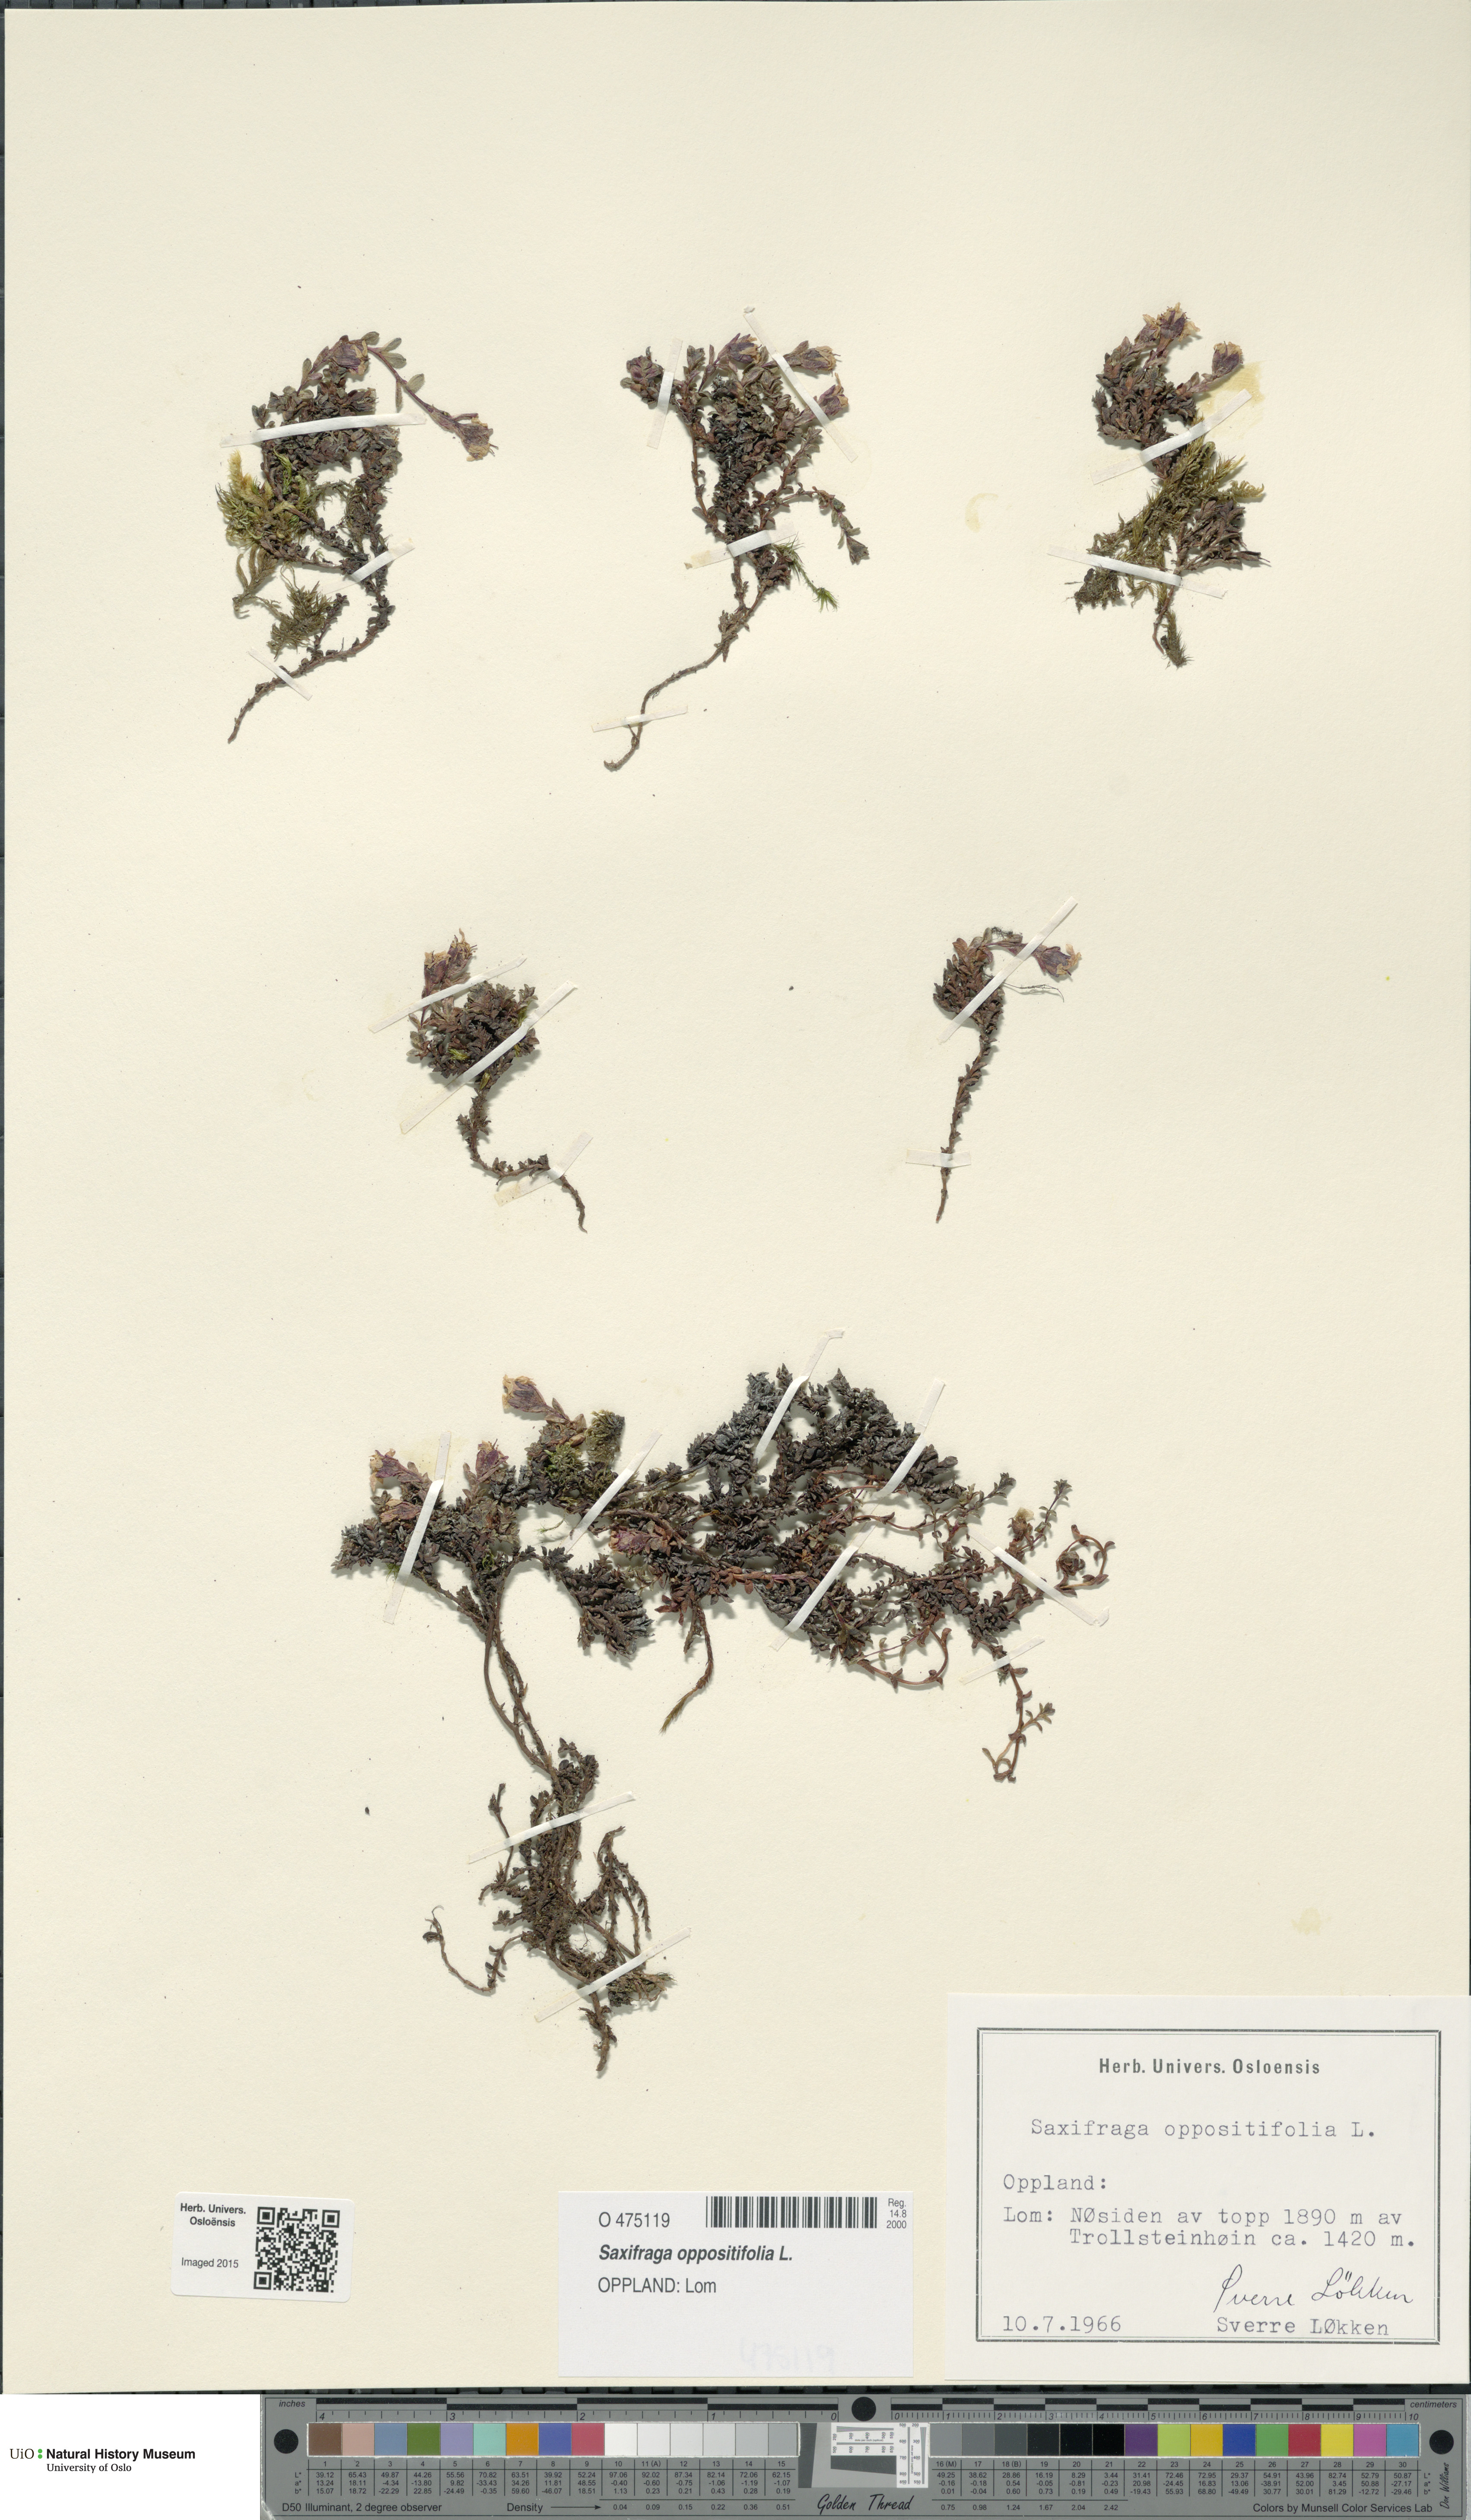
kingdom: Plantae
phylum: Tracheophyta
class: Magnoliopsida
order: Saxifragales
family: Saxifragaceae
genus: Saxifraga
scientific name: Saxifraga oppositifolia
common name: Purple saxifrage
